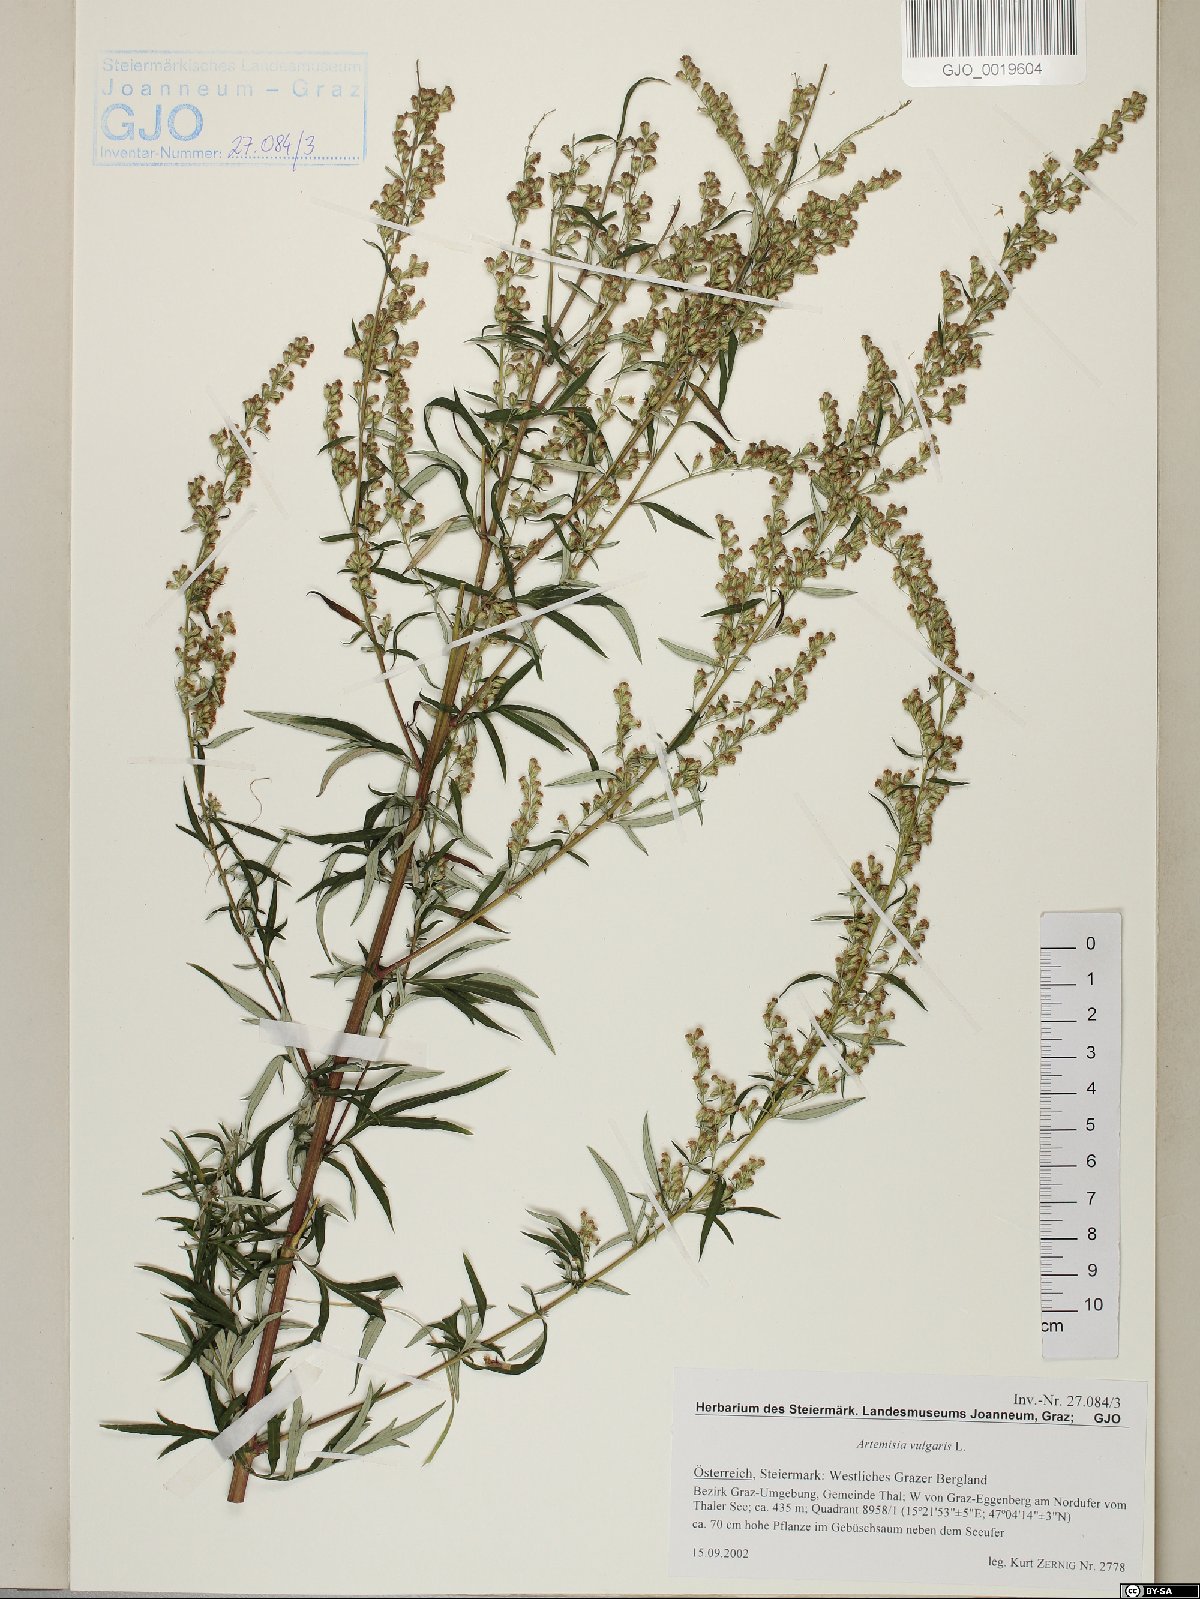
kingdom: Plantae
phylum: Tracheophyta
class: Magnoliopsida
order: Asterales
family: Asteraceae
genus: Artemisia
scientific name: Artemisia vulgaris
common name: Mugwort
